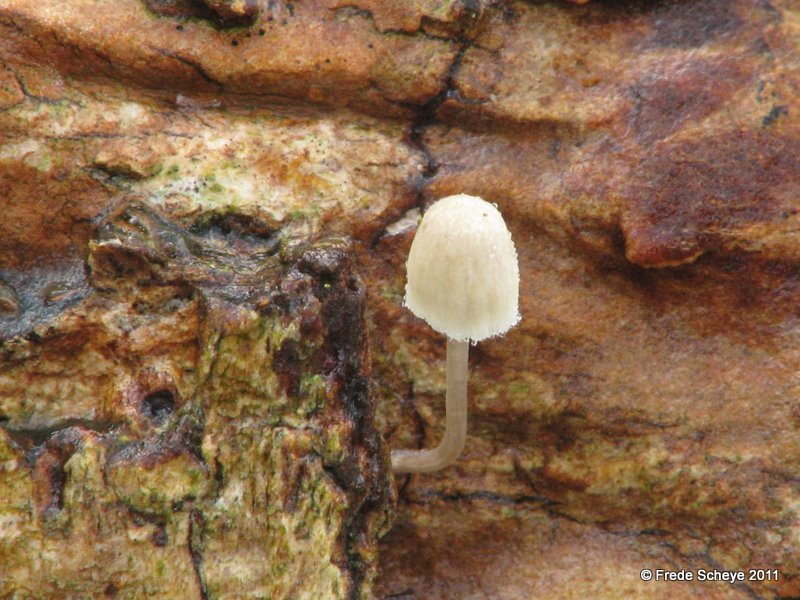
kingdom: Fungi
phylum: Basidiomycota
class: Agaricomycetes
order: Agaricales
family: Porotheleaceae
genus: Phloeomana
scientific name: Phloeomana hiemalis
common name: sen huesvamp
